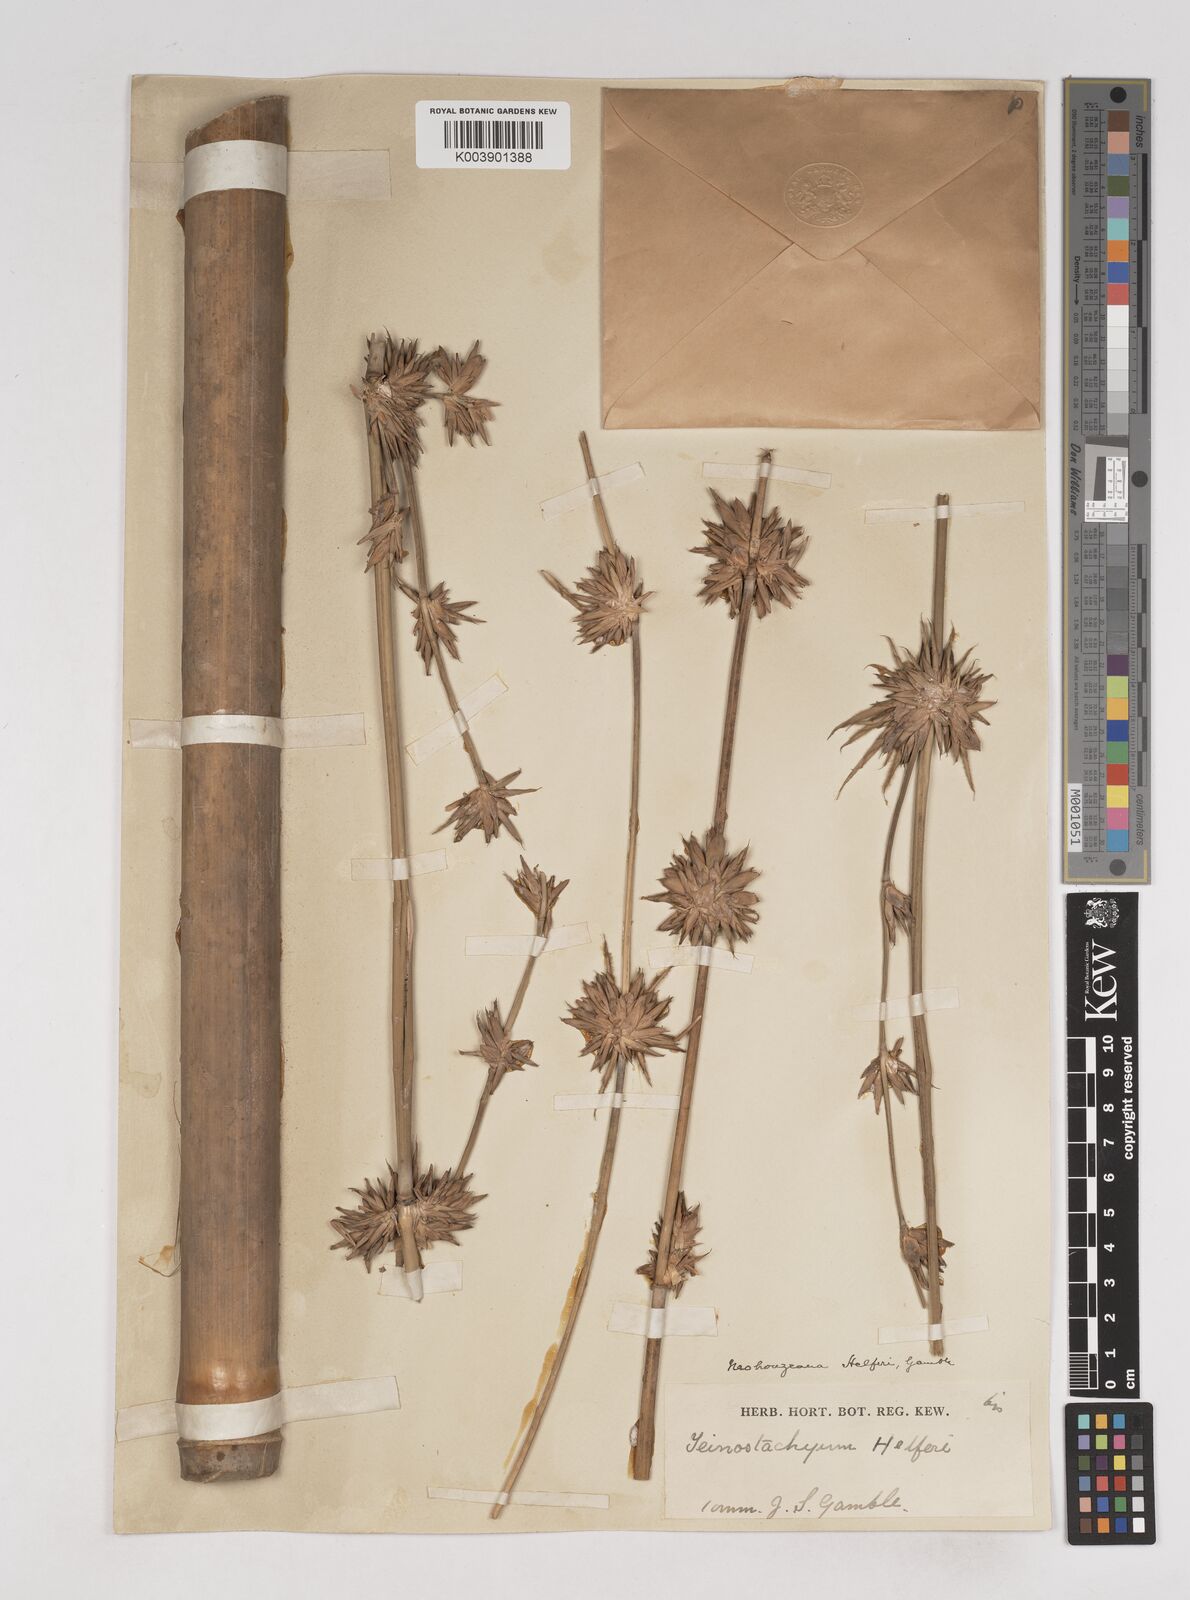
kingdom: Plantae
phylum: Tracheophyta
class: Liliopsida
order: Poales
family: Poaceae
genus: Schizostachyum
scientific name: Schizostachyum helferi
